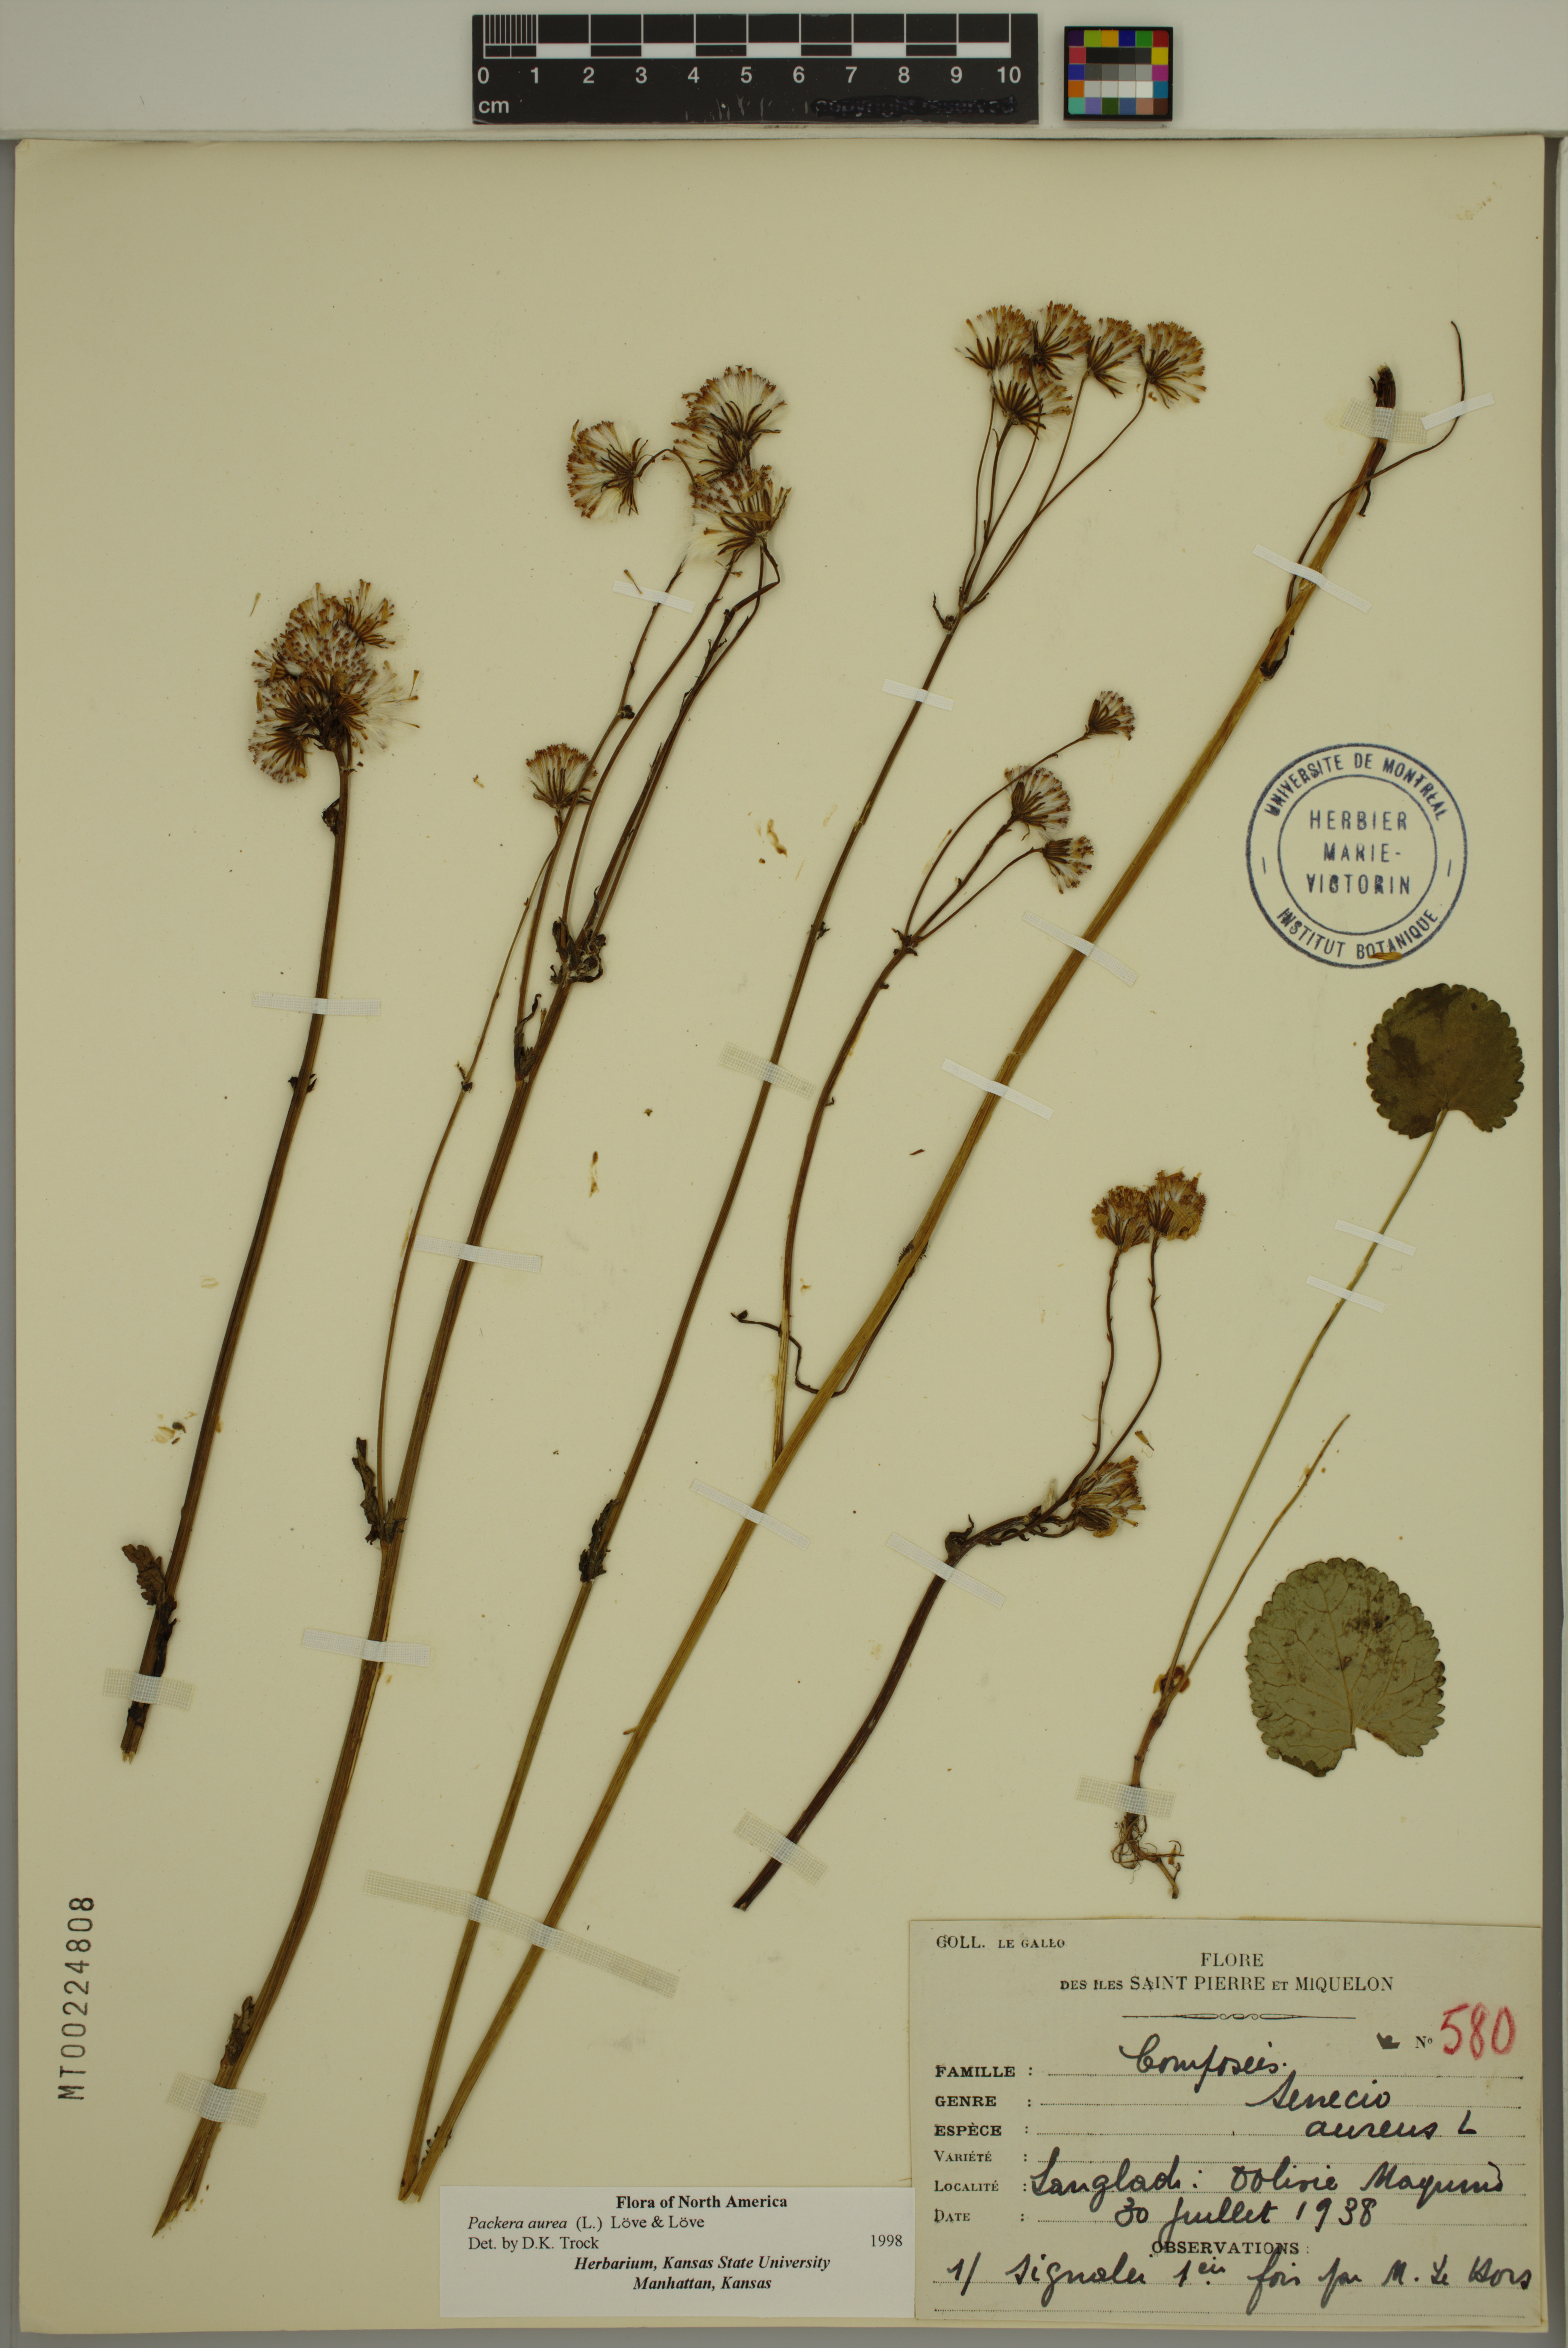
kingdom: Plantae
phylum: Tracheophyta
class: Magnoliopsida
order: Asterales
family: Asteraceae
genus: Packera
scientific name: Packera aurea
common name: Golden groundsel
